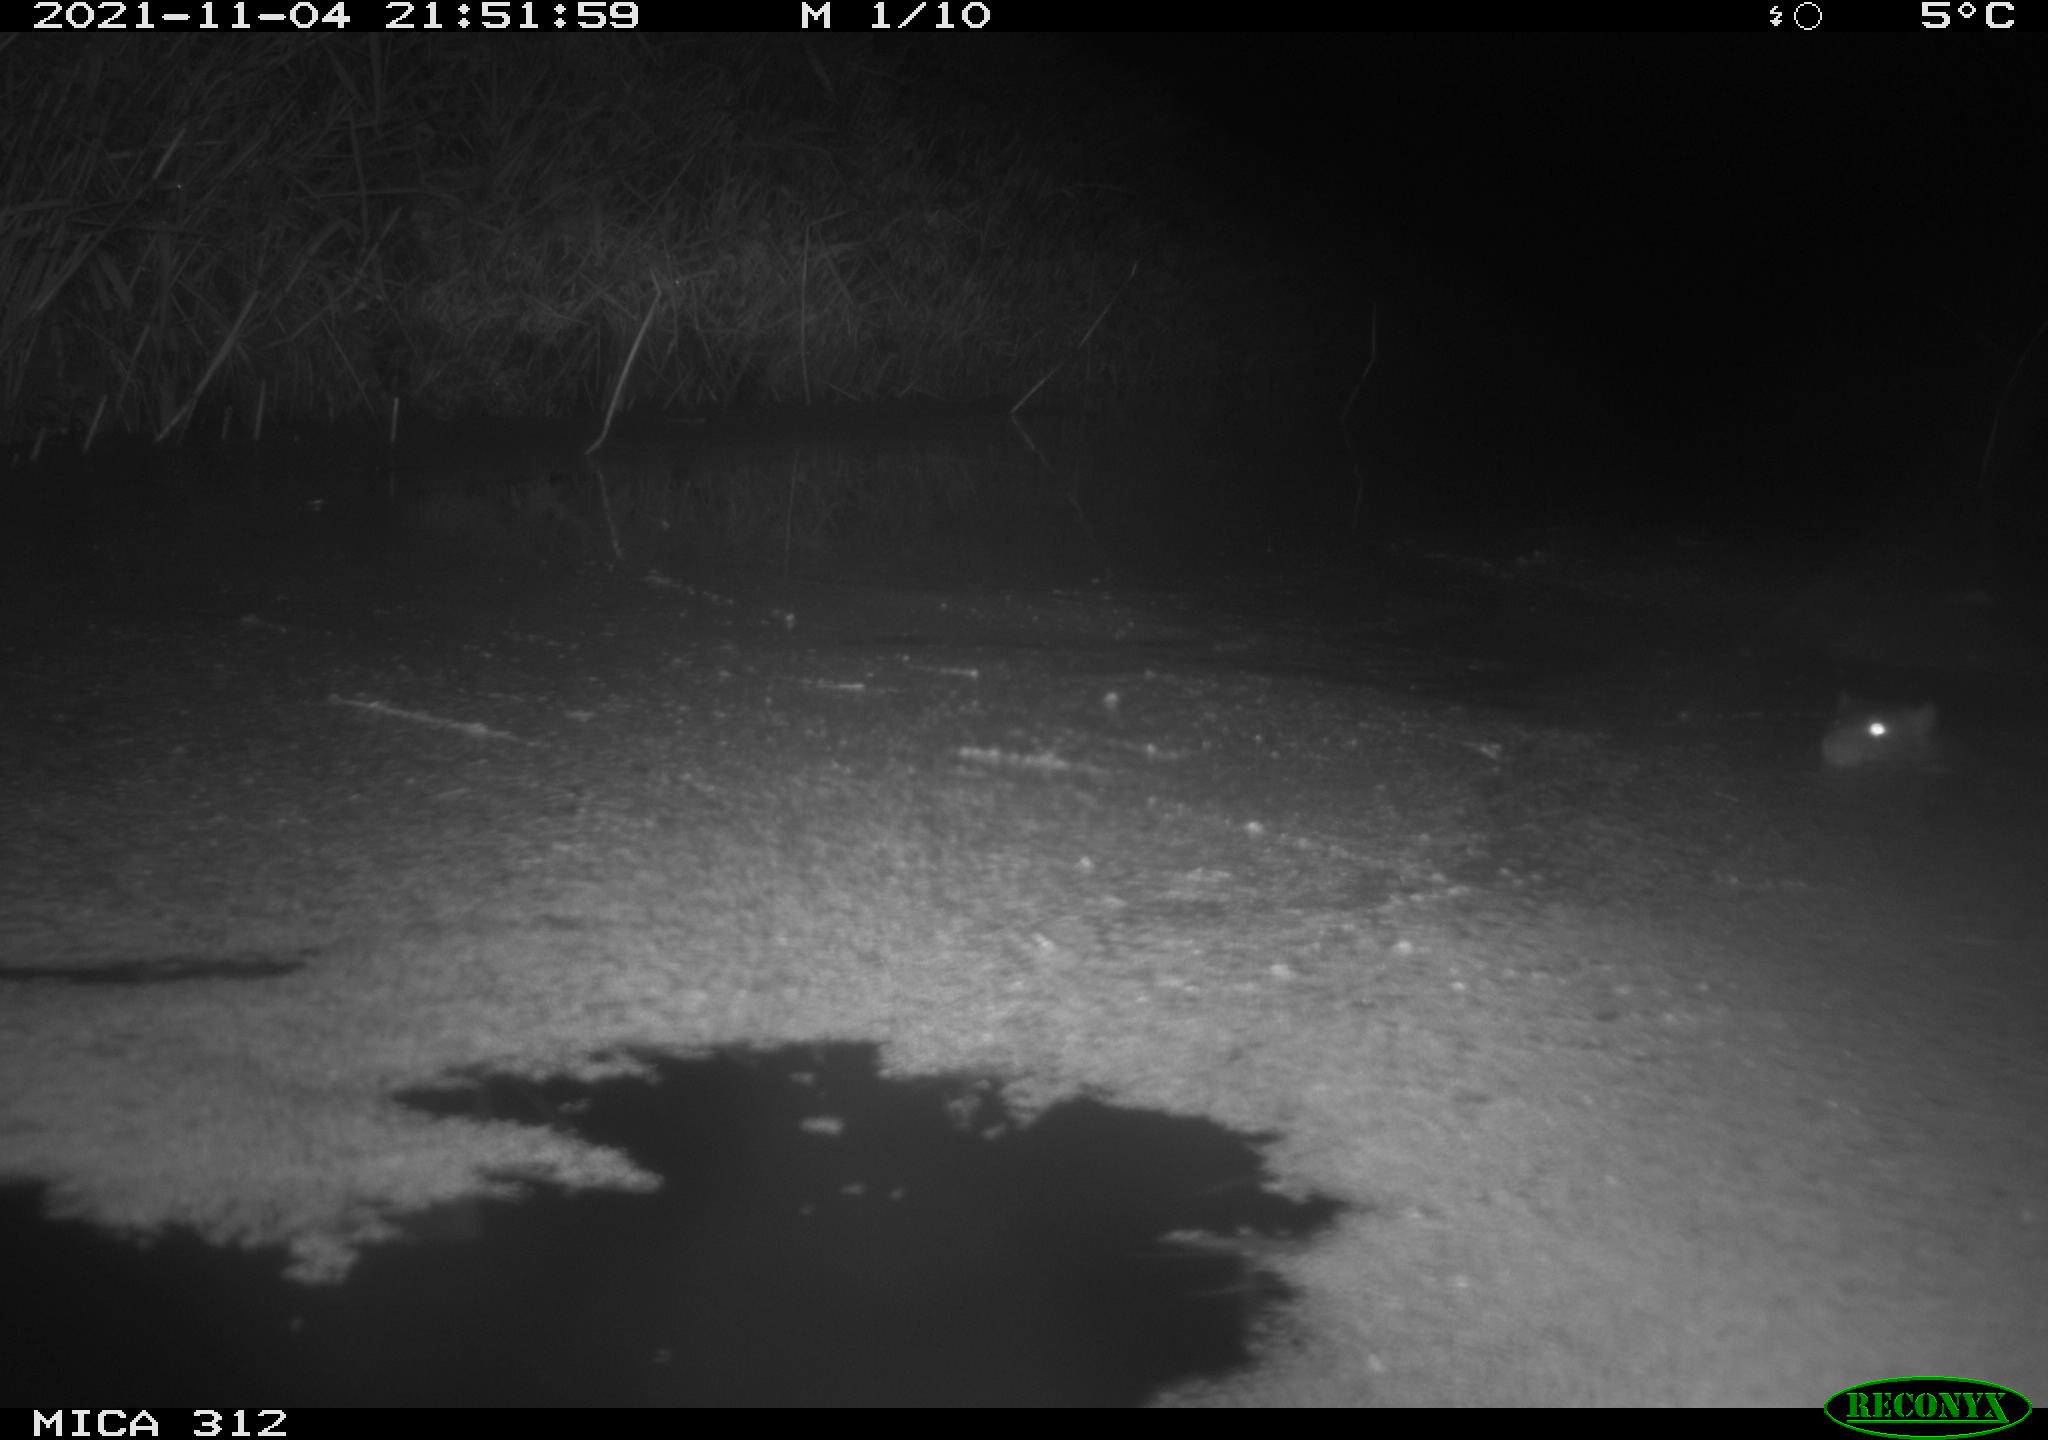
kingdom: Animalia
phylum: Chordata
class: Mammalia
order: Rodentia
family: Muridae
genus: Rattus
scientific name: Rattus norvegicus
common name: Brown rat
